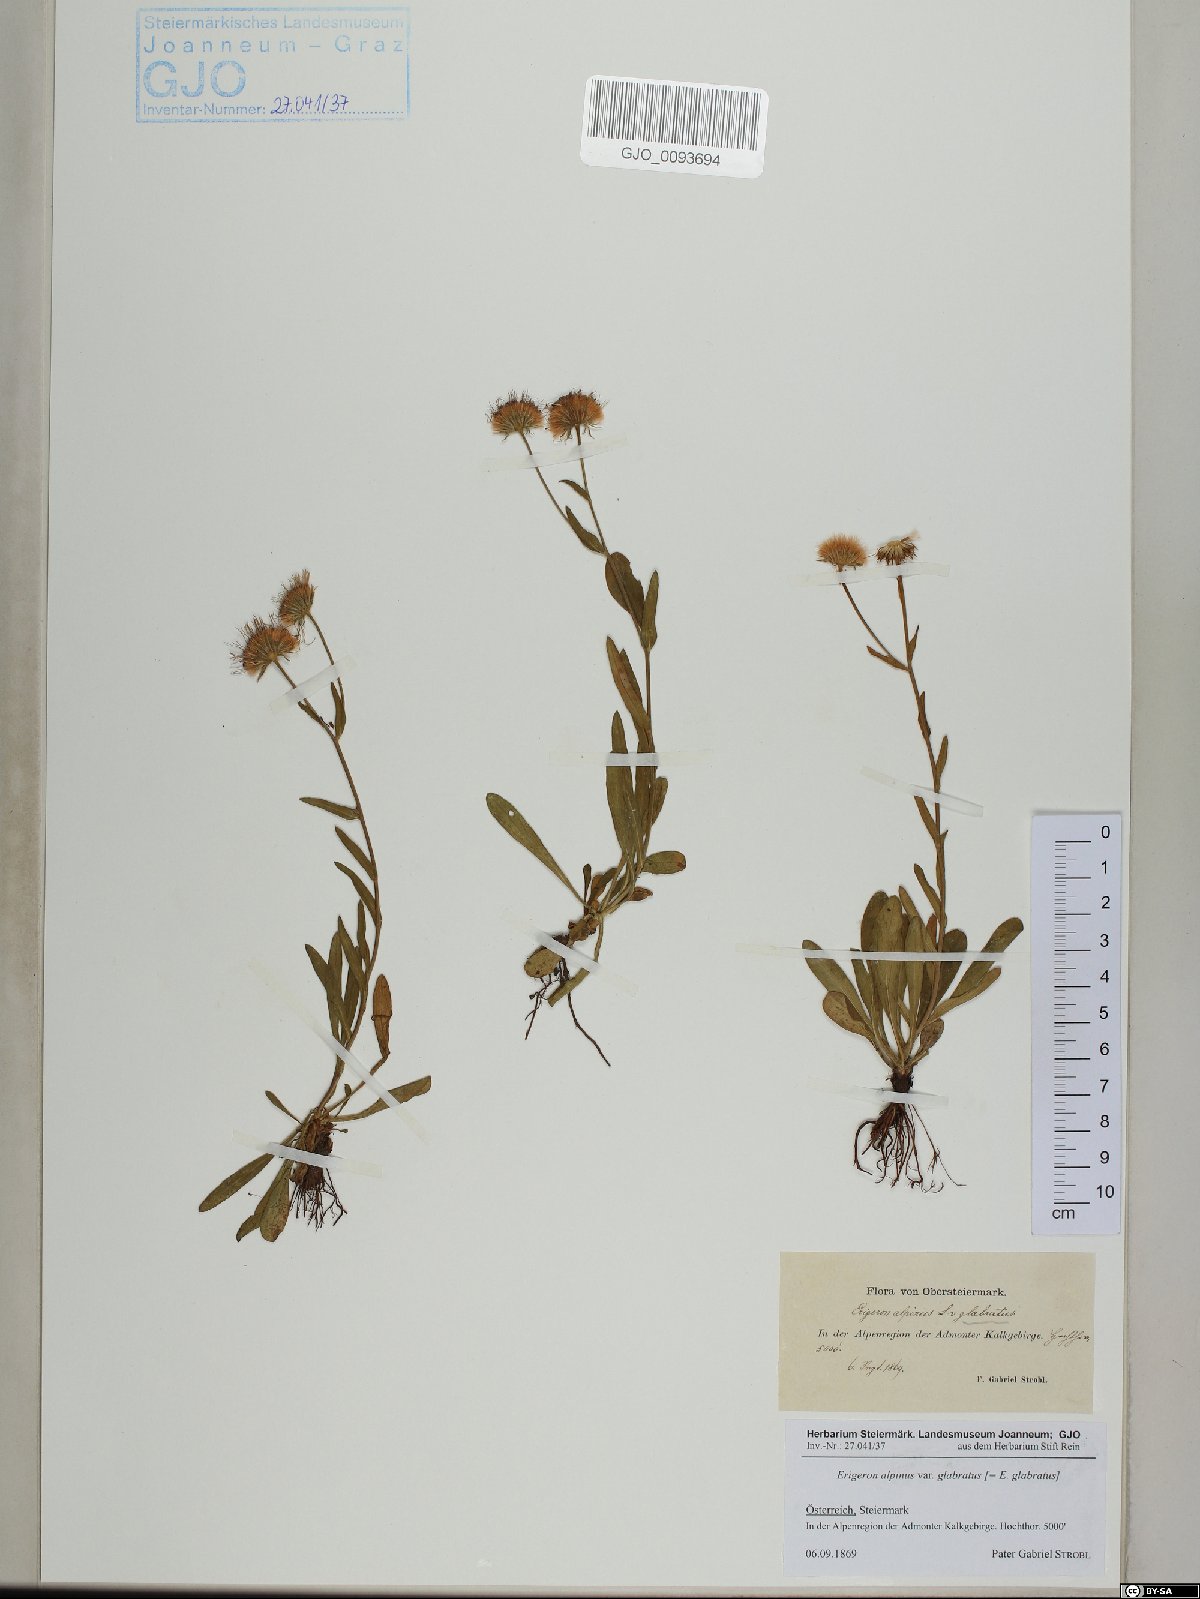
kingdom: Plantae
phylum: Tracheophyta
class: Magnoliopsida
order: Asterales
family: Asteraceae
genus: Erigeron
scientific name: Erigeron glabratus
